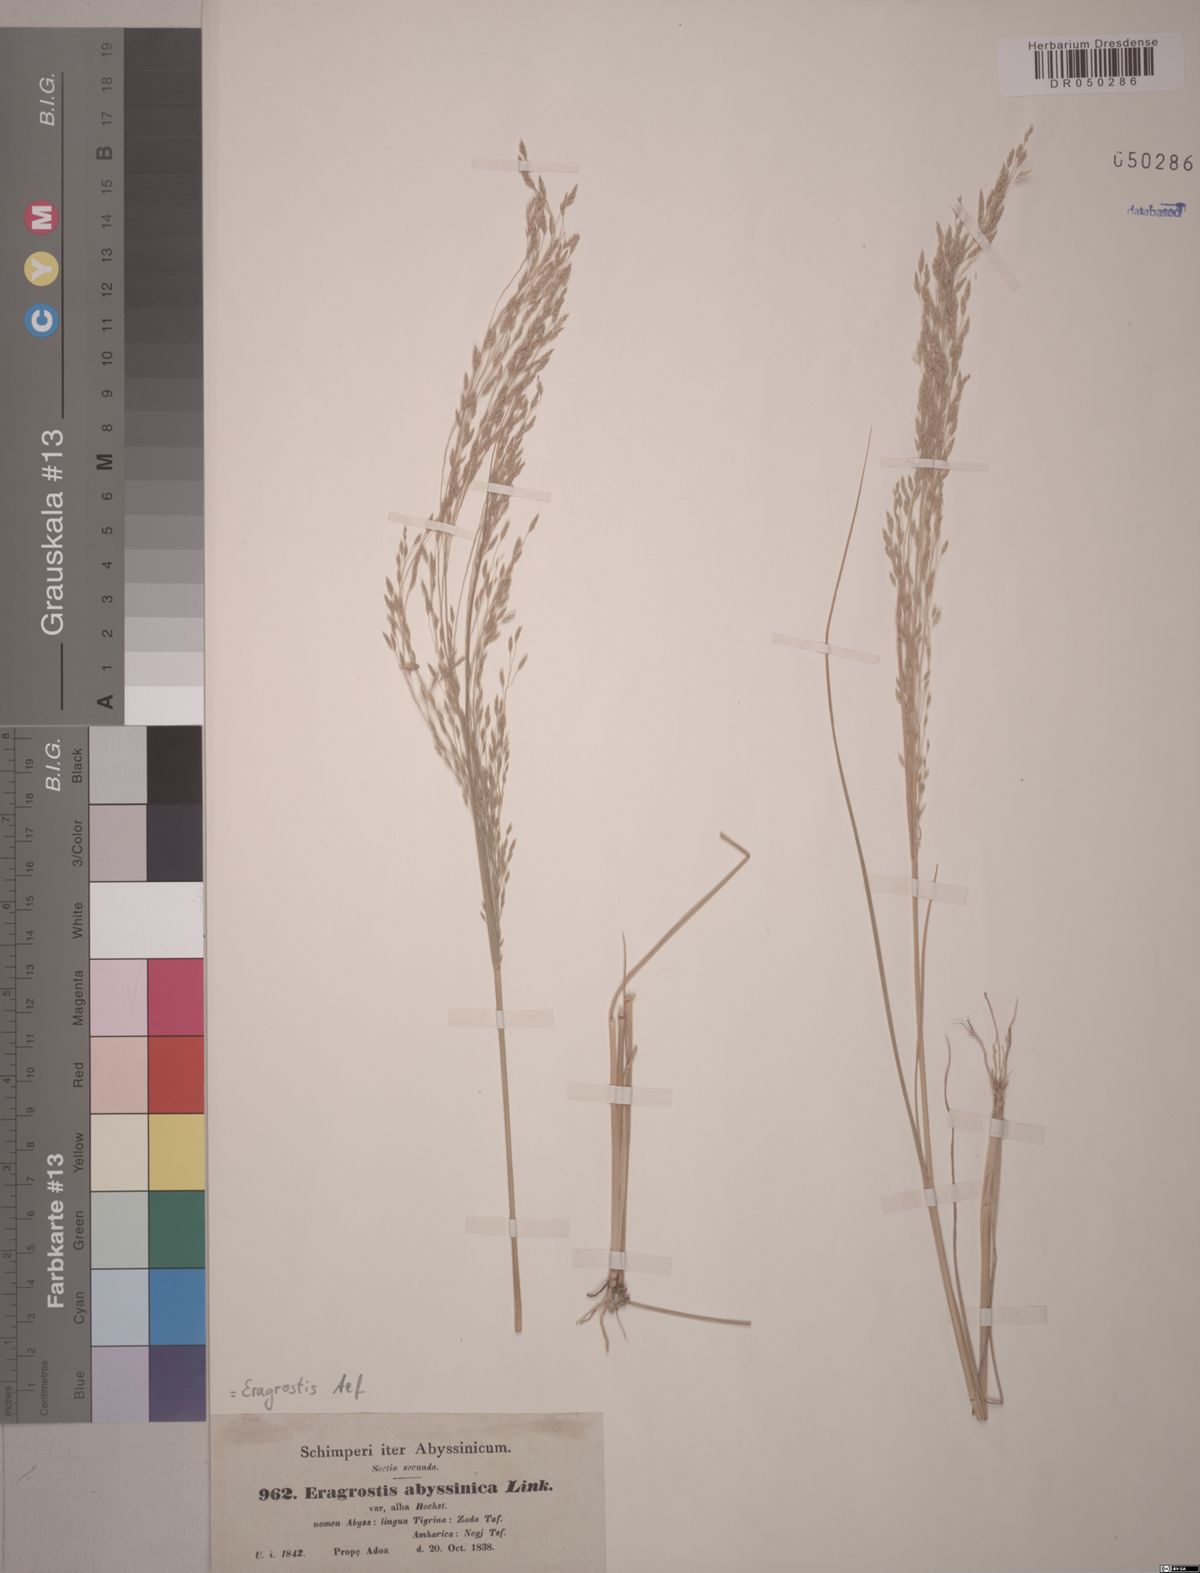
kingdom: Plantae
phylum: Tracheophyta
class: Liliopsida
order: Poales
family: Poaceae
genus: Eragrostis
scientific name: Eragrostis tef
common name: Teff
